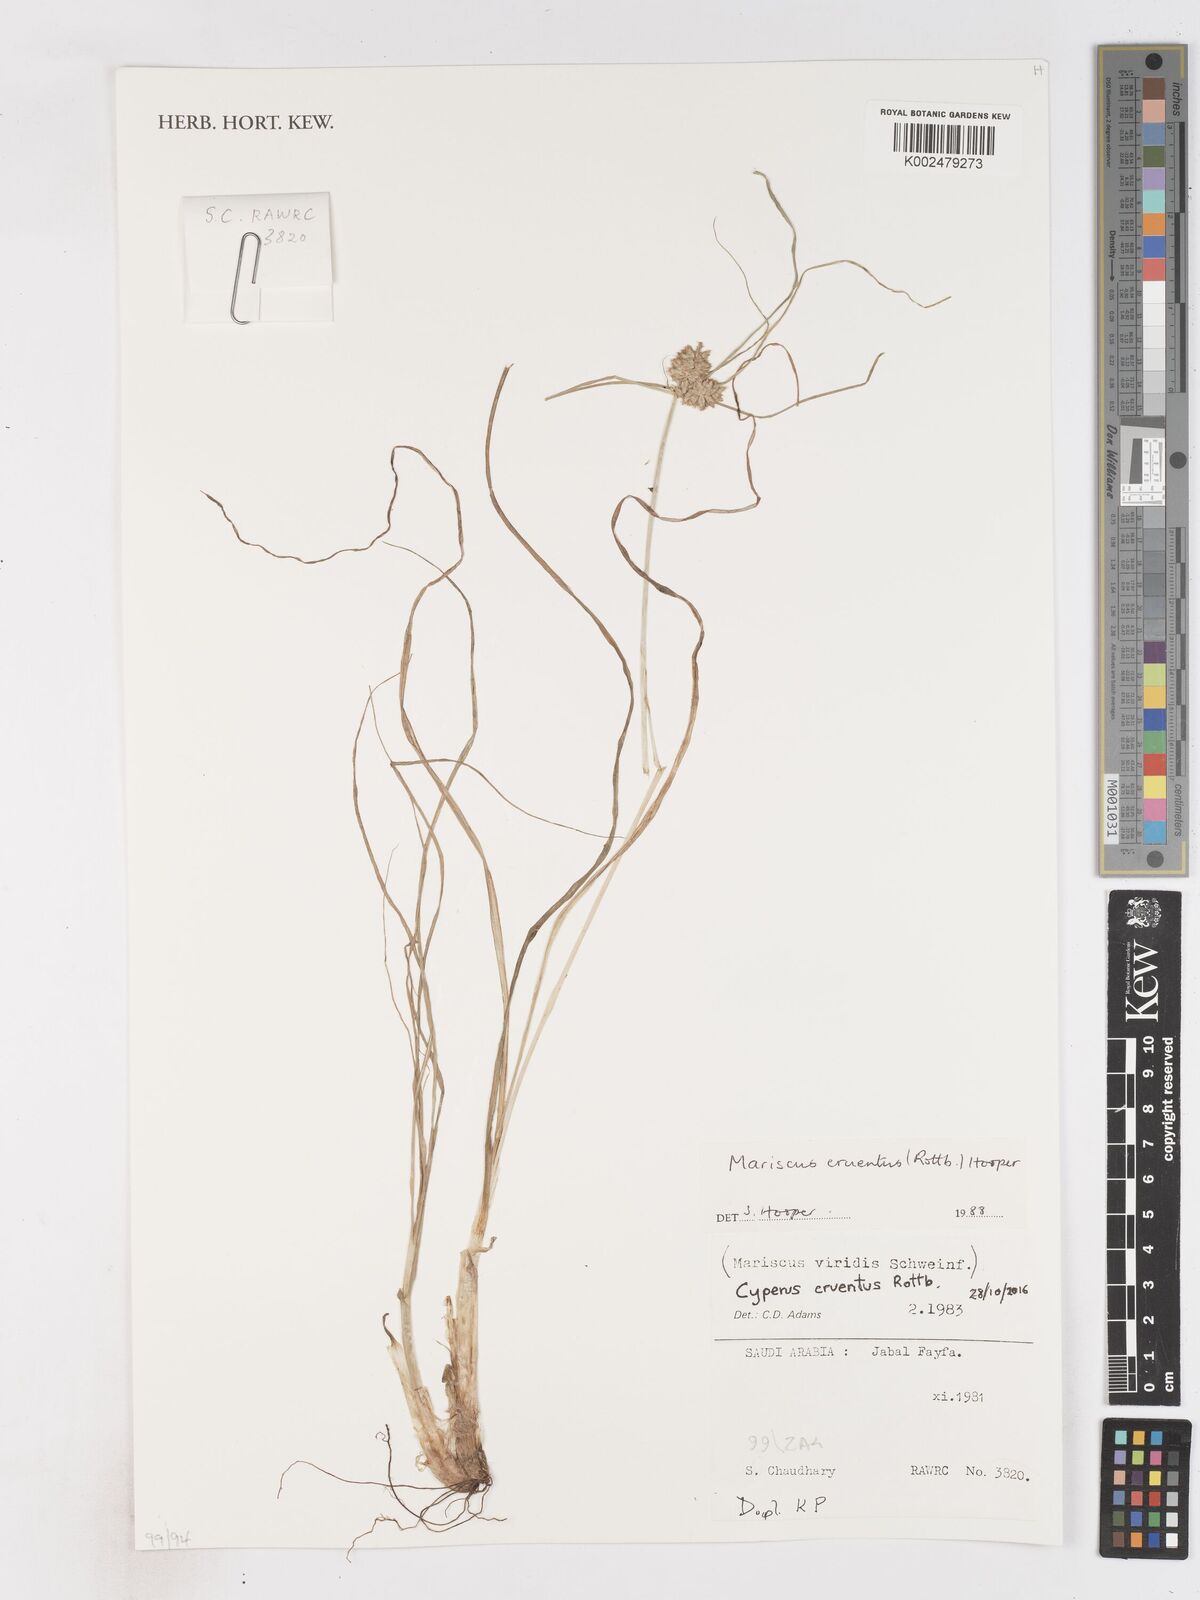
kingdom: Plantae
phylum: Tracheophyta
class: Liliopsida
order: Poales
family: Cyperaceae
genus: Cyperus
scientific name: Cyperus cruentus
